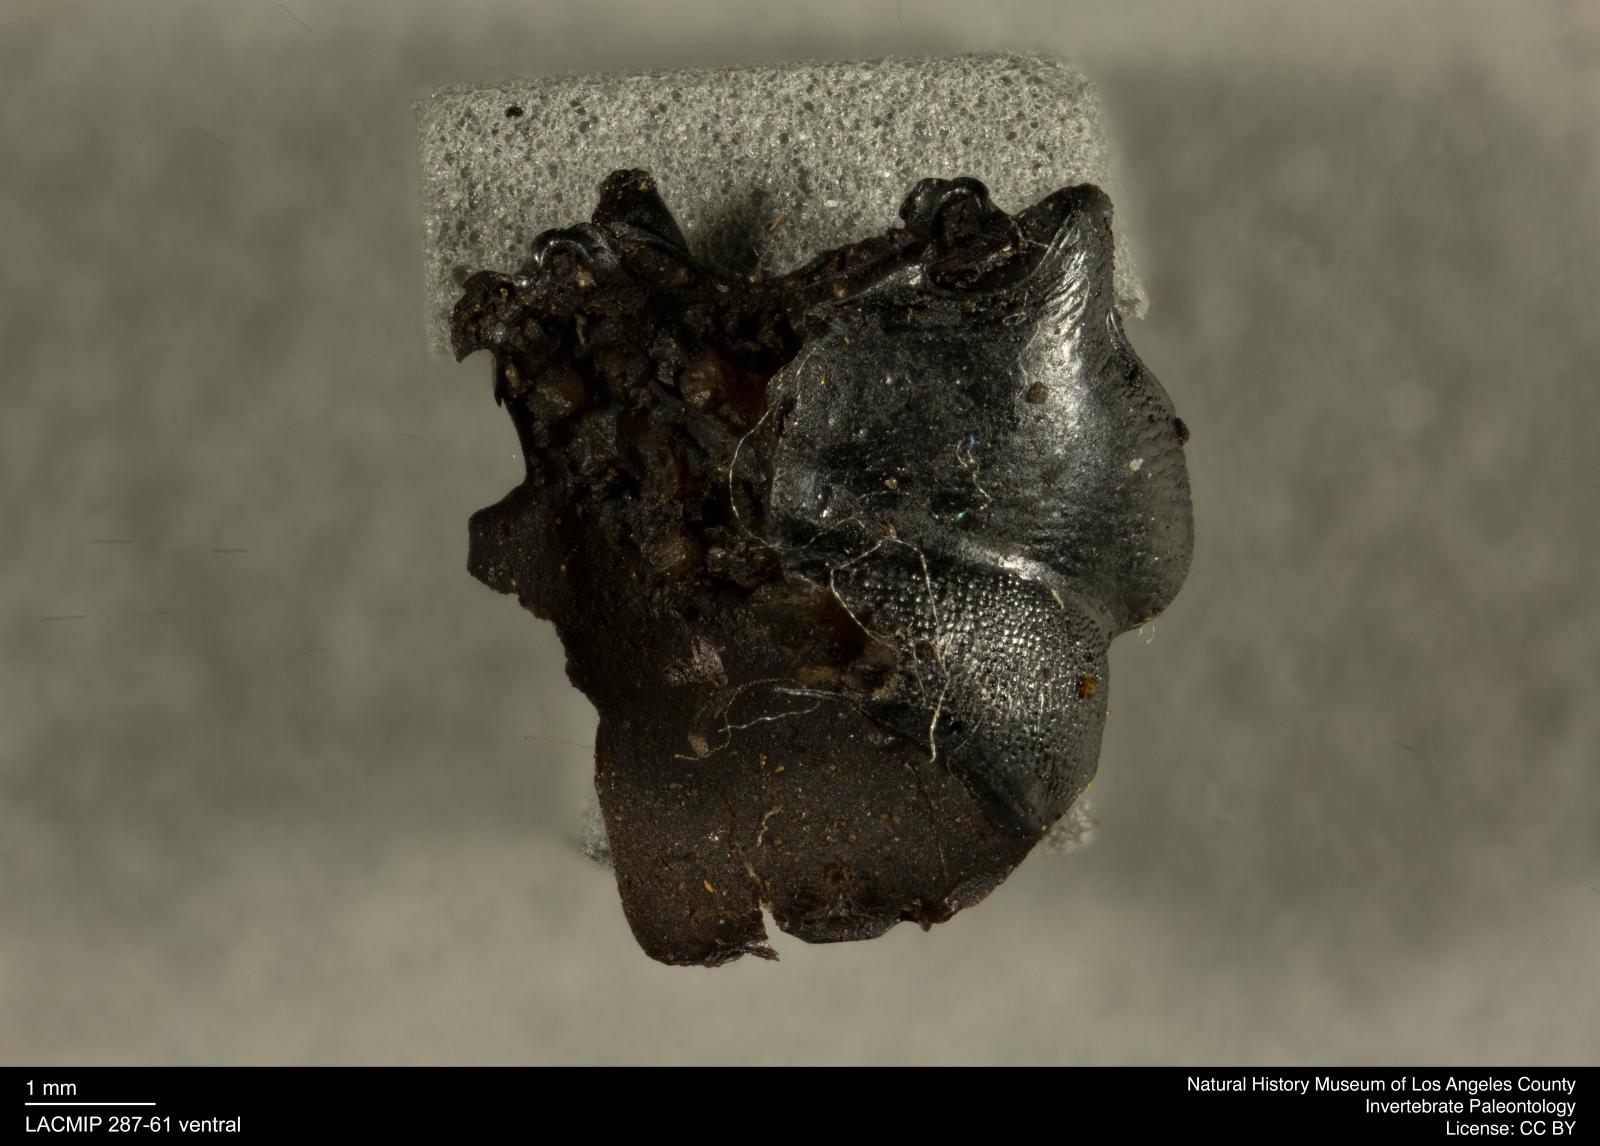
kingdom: Animalia
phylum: Arthropoda
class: Insecta
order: Coleoptera
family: Staphylinidae
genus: Nicrophorus
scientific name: Nicrophorus marginatus
